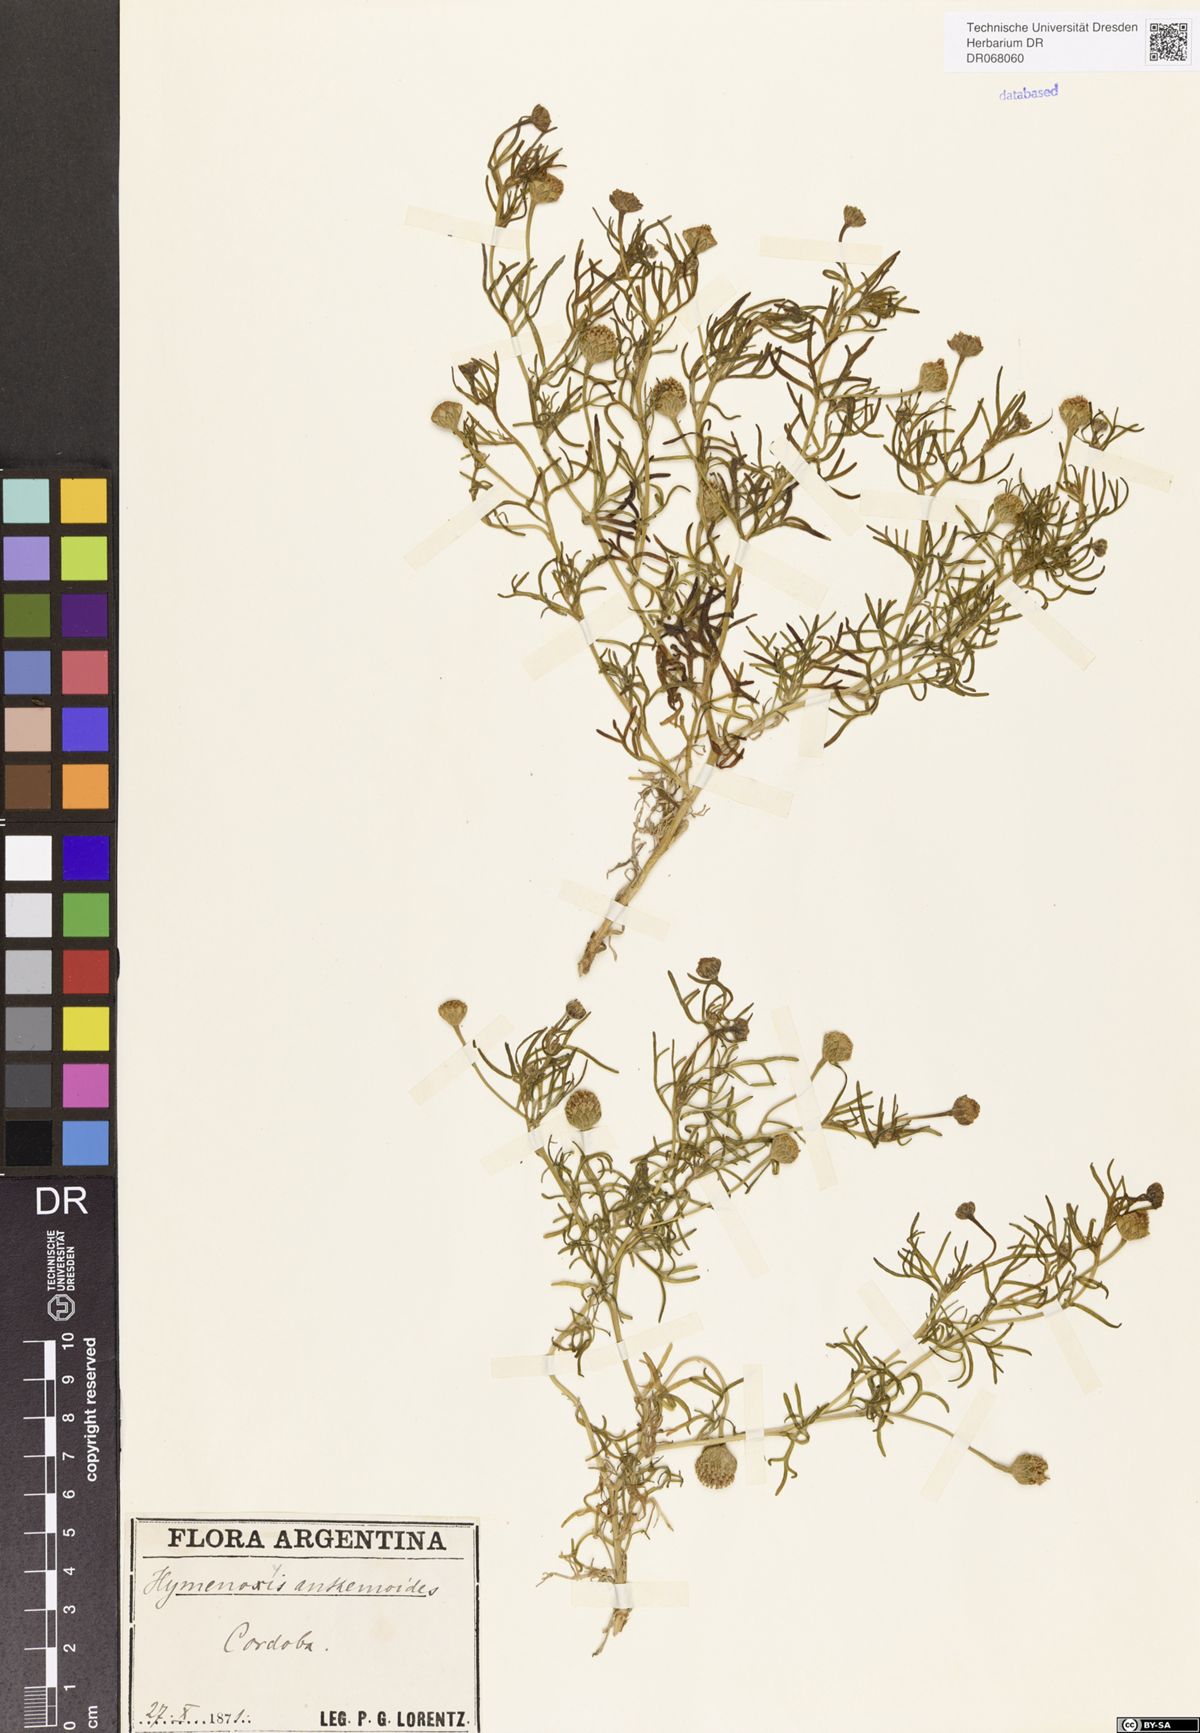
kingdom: Plantae
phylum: Tracheophyta
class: Magnoliopsida
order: Asterales
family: Asteraceae
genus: Hymenoxys
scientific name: Hymenoxys anthemoides
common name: South american rubberweed
